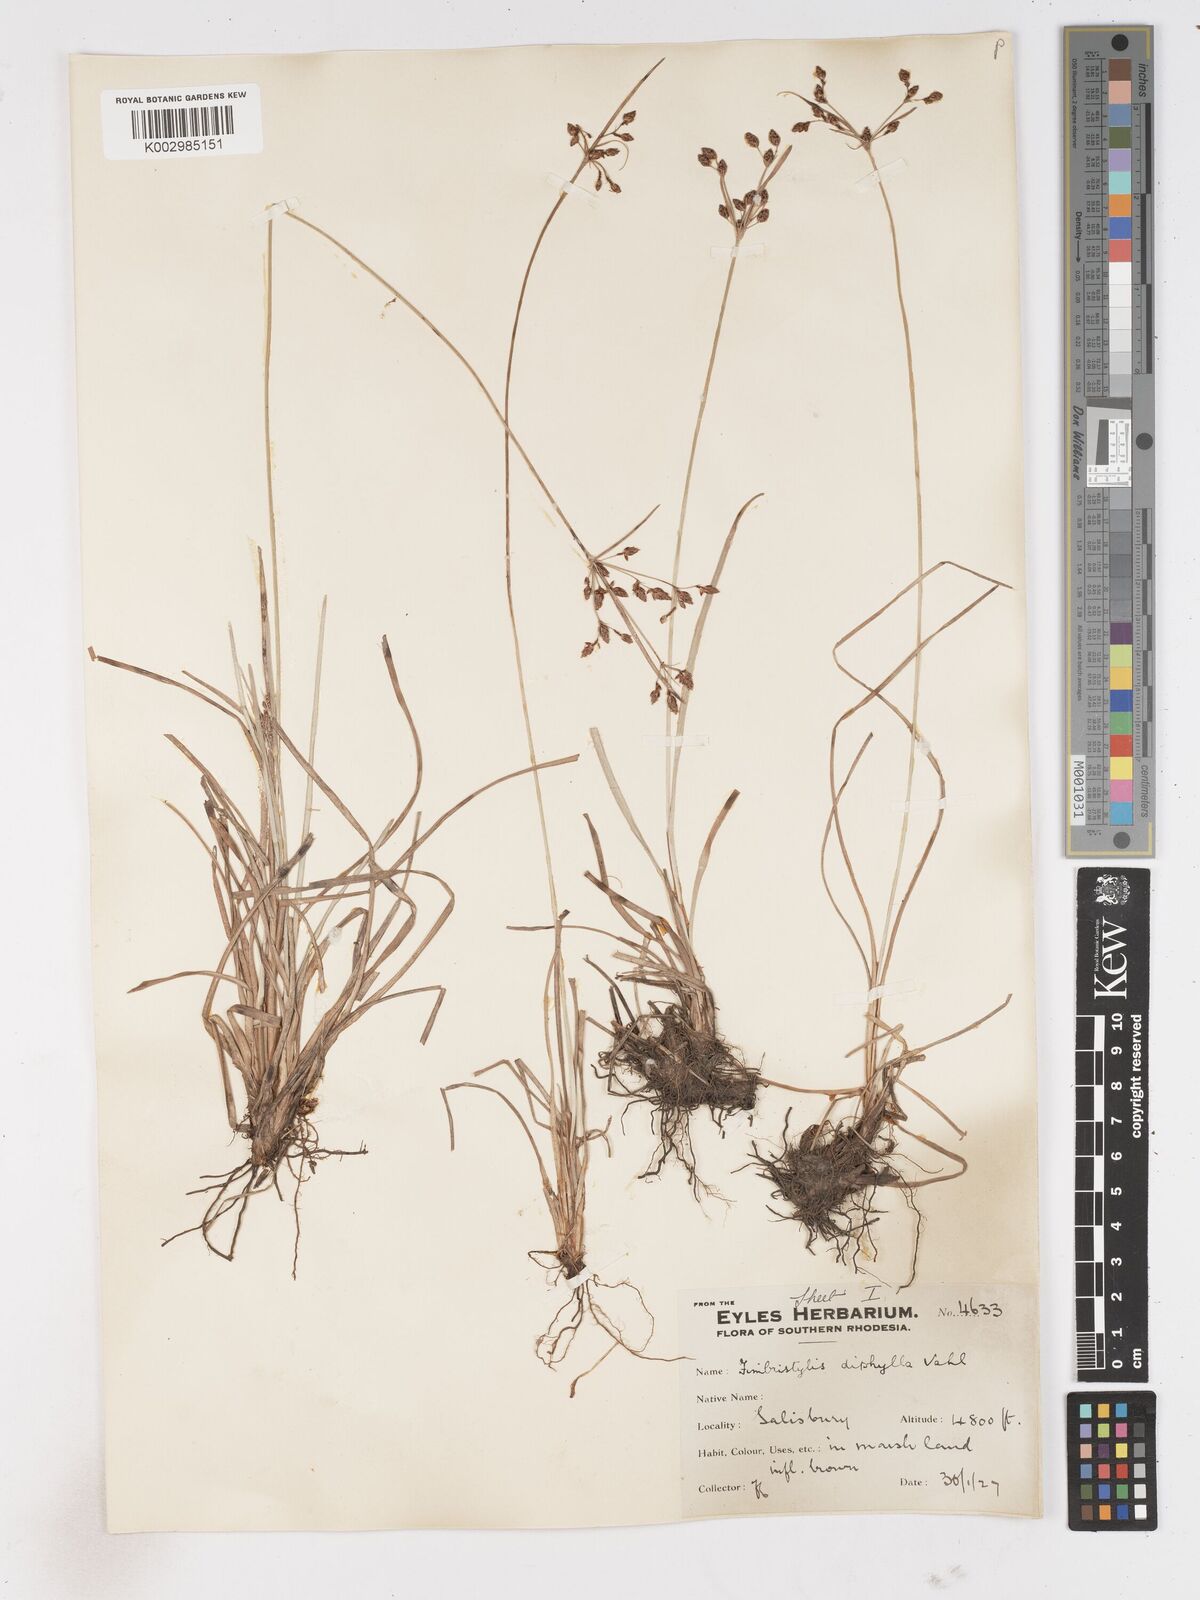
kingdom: Plantae
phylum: Tracheophyta
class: Liliopsida
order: Poales
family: Cyperaceae
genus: Fimbristylis
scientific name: Fimbristylis dichotoma
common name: Forked fimbry
